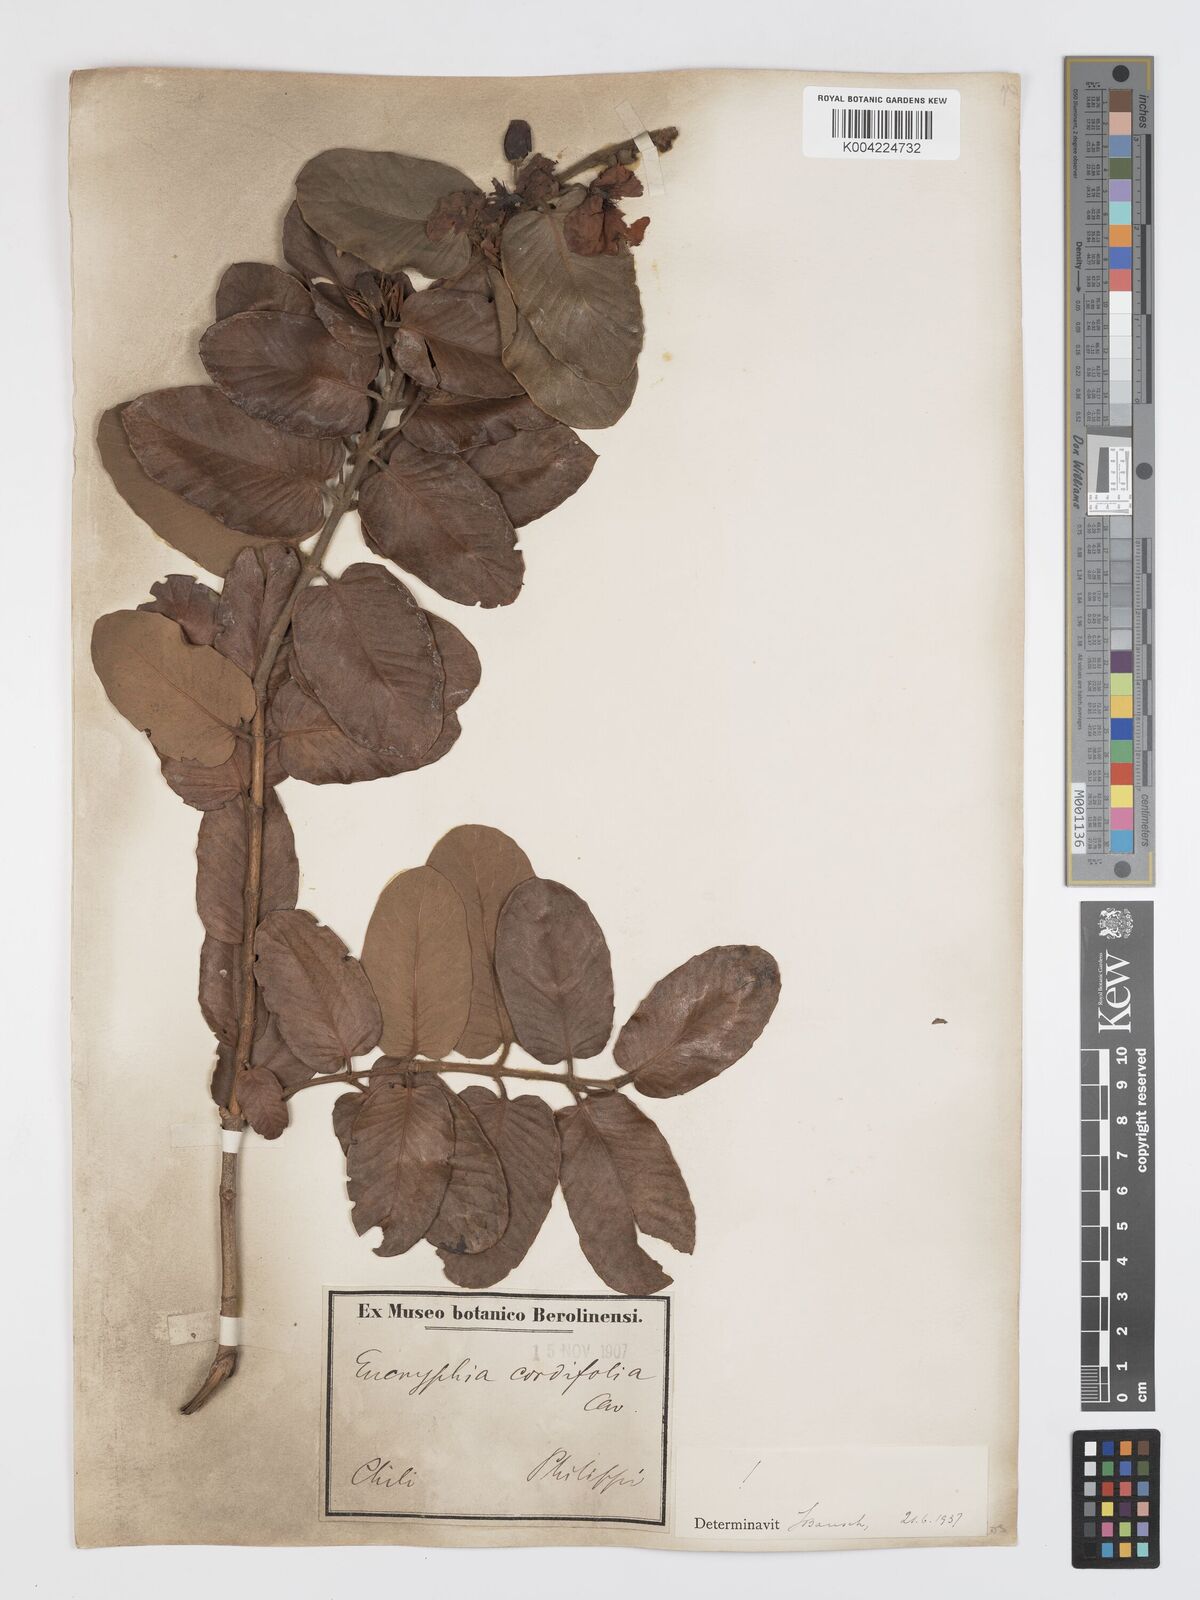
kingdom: Plantae
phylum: Tracheophyta
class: Magnoliopsida
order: Oxalidales
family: Cunoniaceae
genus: Eucryphia
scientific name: Eucryphia cordifolia
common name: Ulmo
